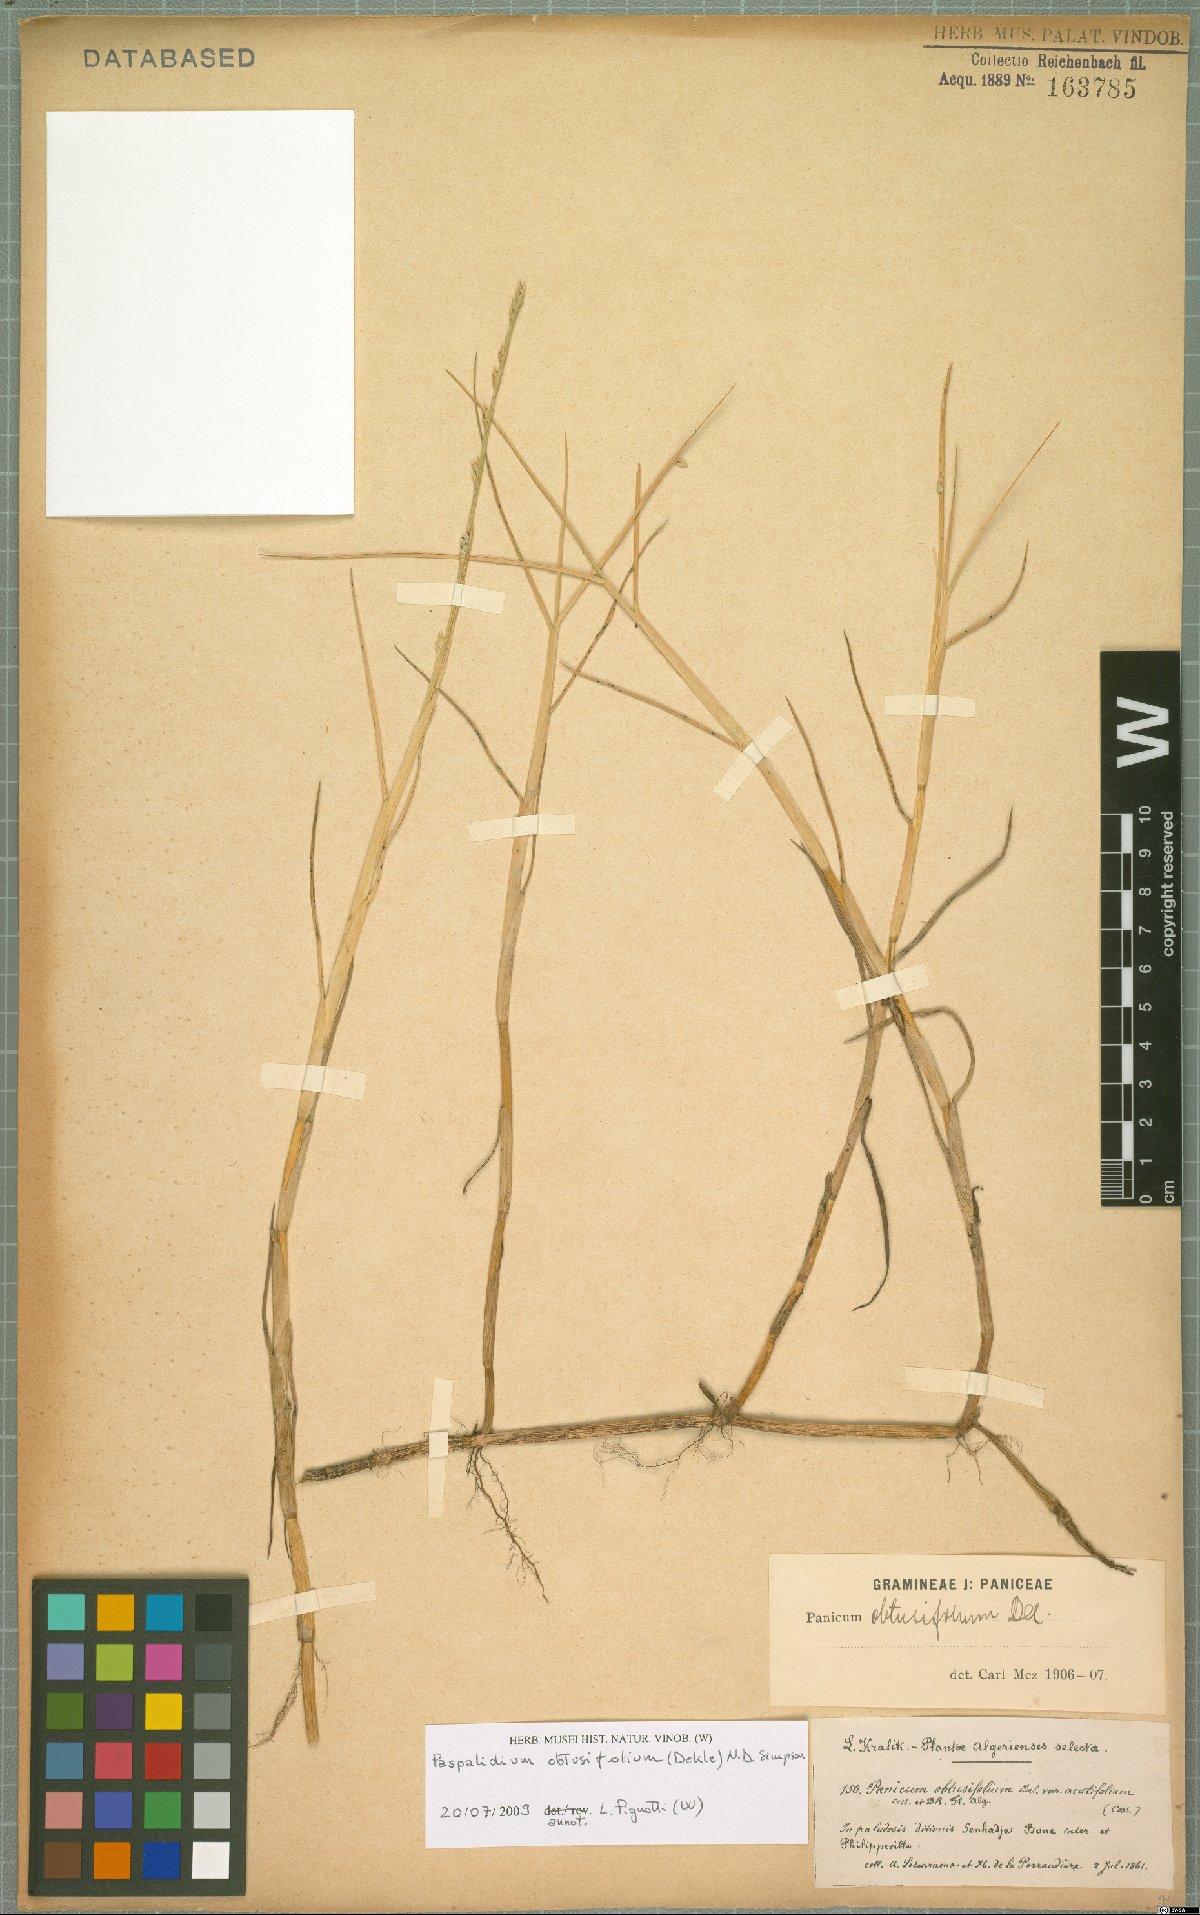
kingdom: Plantae
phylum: Tracheophyta
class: Liliopsida
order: Poales
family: Poaceae
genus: Setaria
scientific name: Setaria obtusifolia
